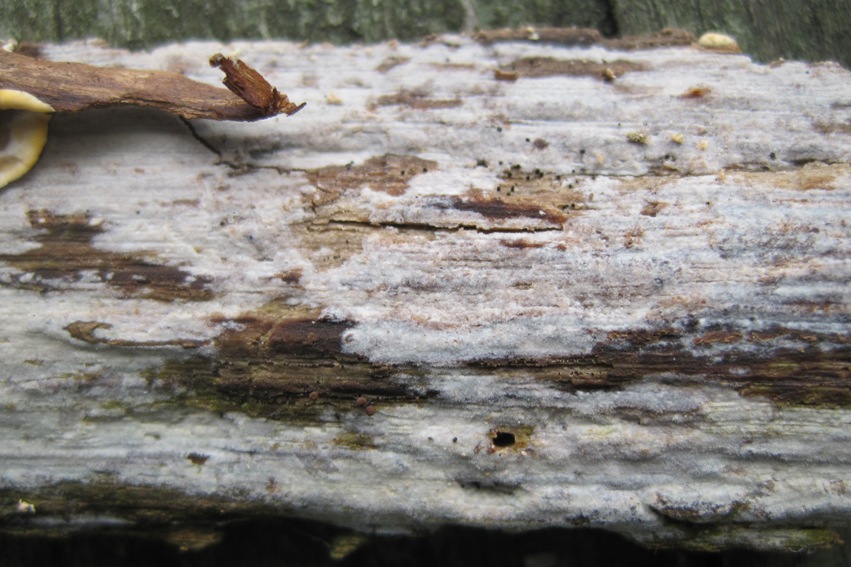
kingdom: Fungi
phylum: Basidiomycota
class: Agaricomycetes
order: Hymenochaetales
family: Rickenellaceae
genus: Peniophorella
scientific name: Peniophorella pubera
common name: dunet kalkskind
